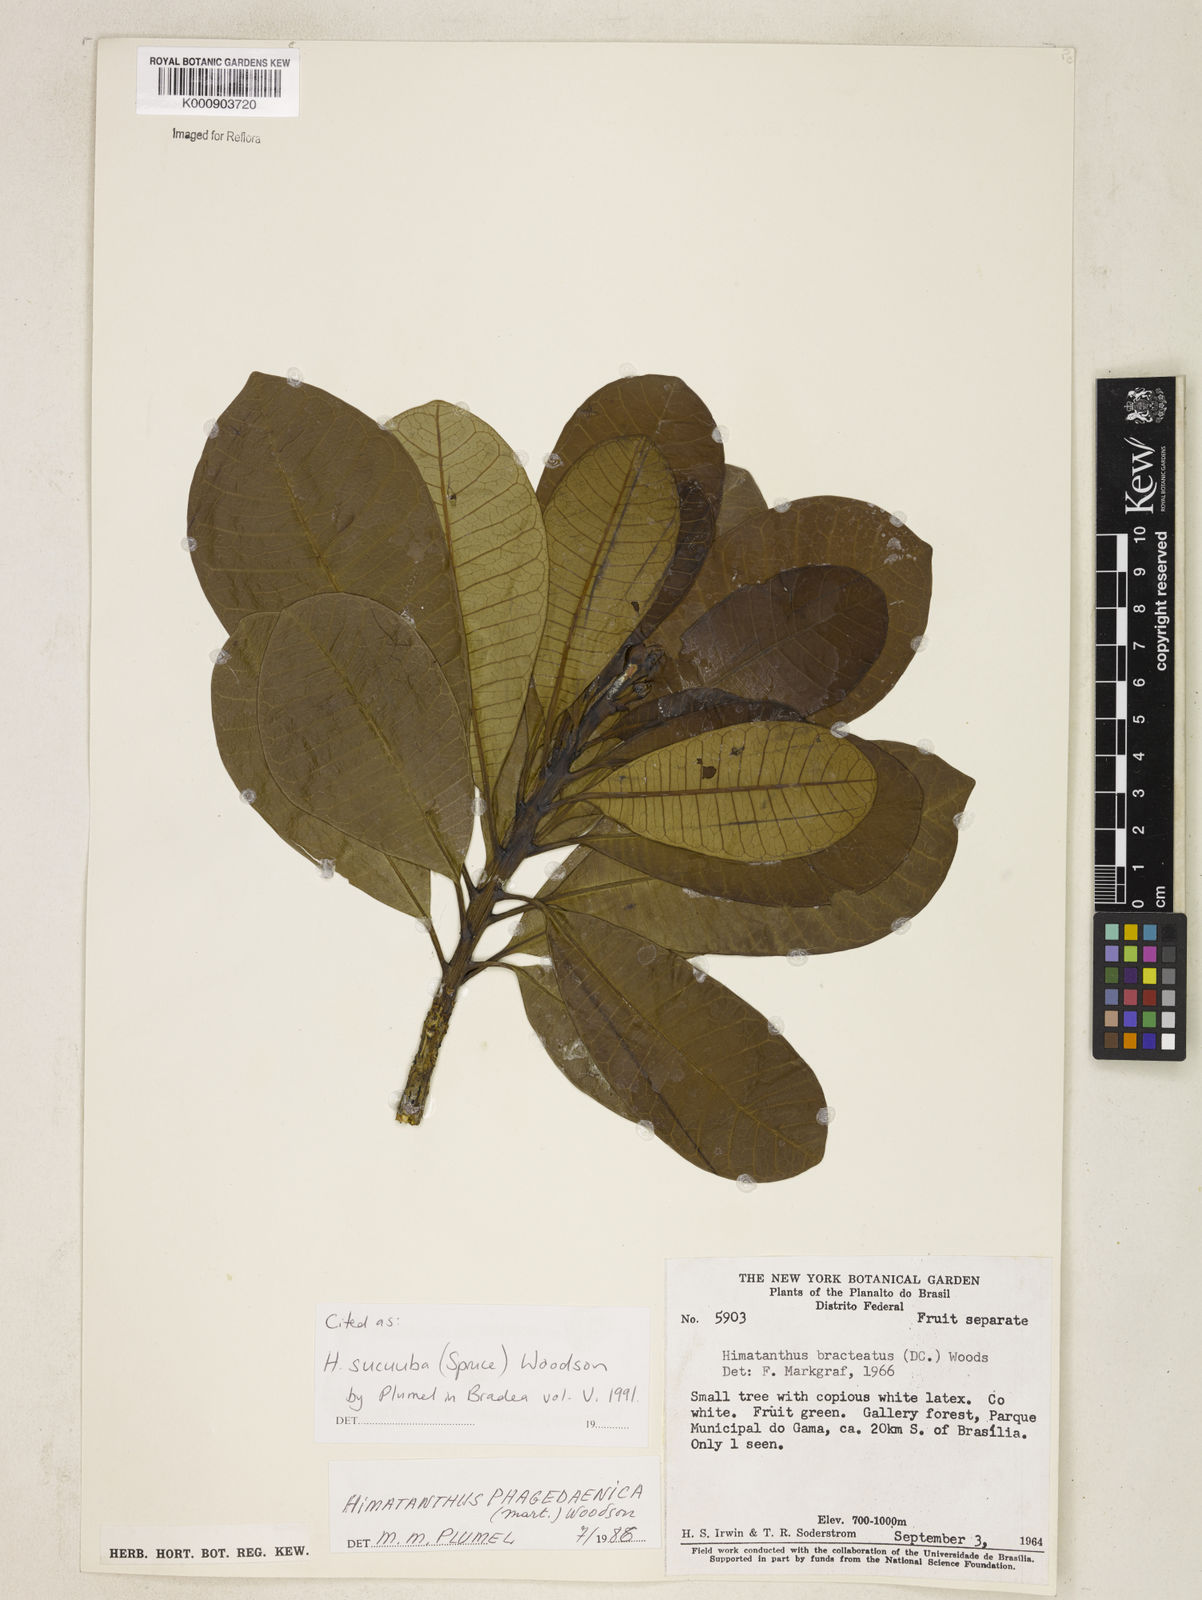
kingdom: Plantae
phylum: Tracheophyta
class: Magnoliopsida
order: Gentianales
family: Apocynaceae
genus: Himatanthus
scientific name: Himatanthus articulatus
